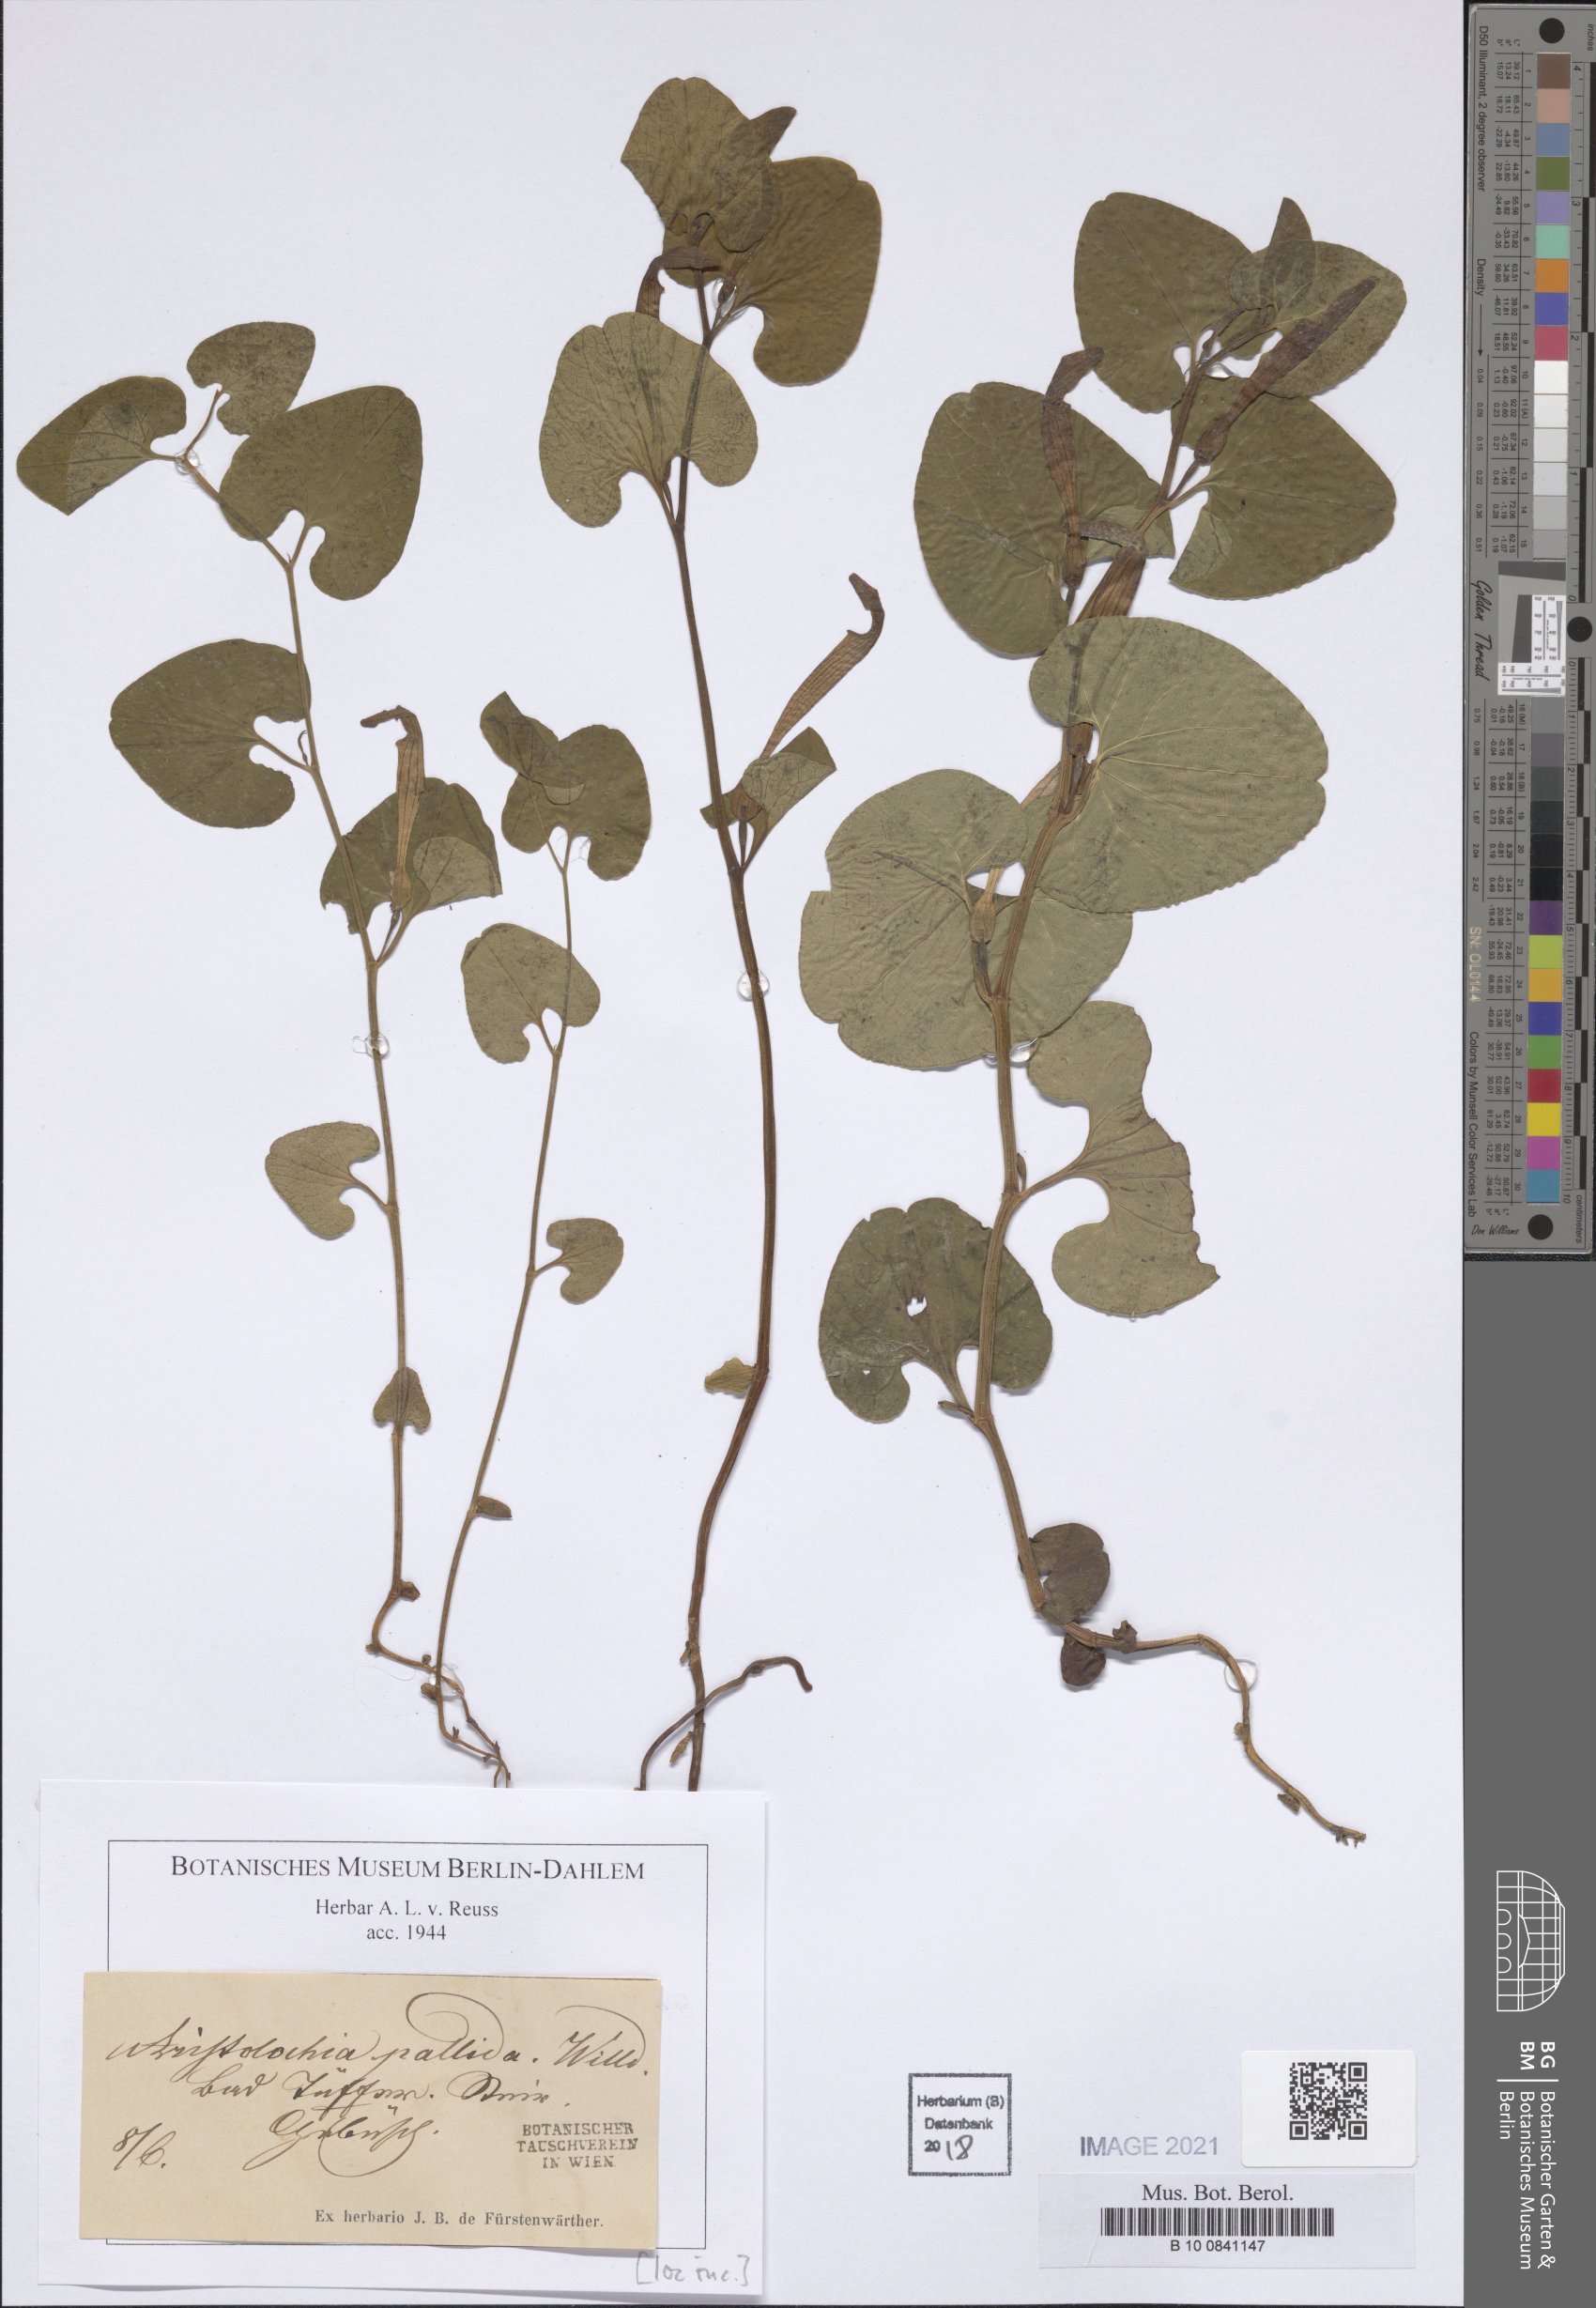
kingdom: Plantae
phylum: Tracheophyta
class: Magnoliopsida
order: Piperales
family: Aristolochiaceae
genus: Aristolochia
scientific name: Aristolochia pallida
